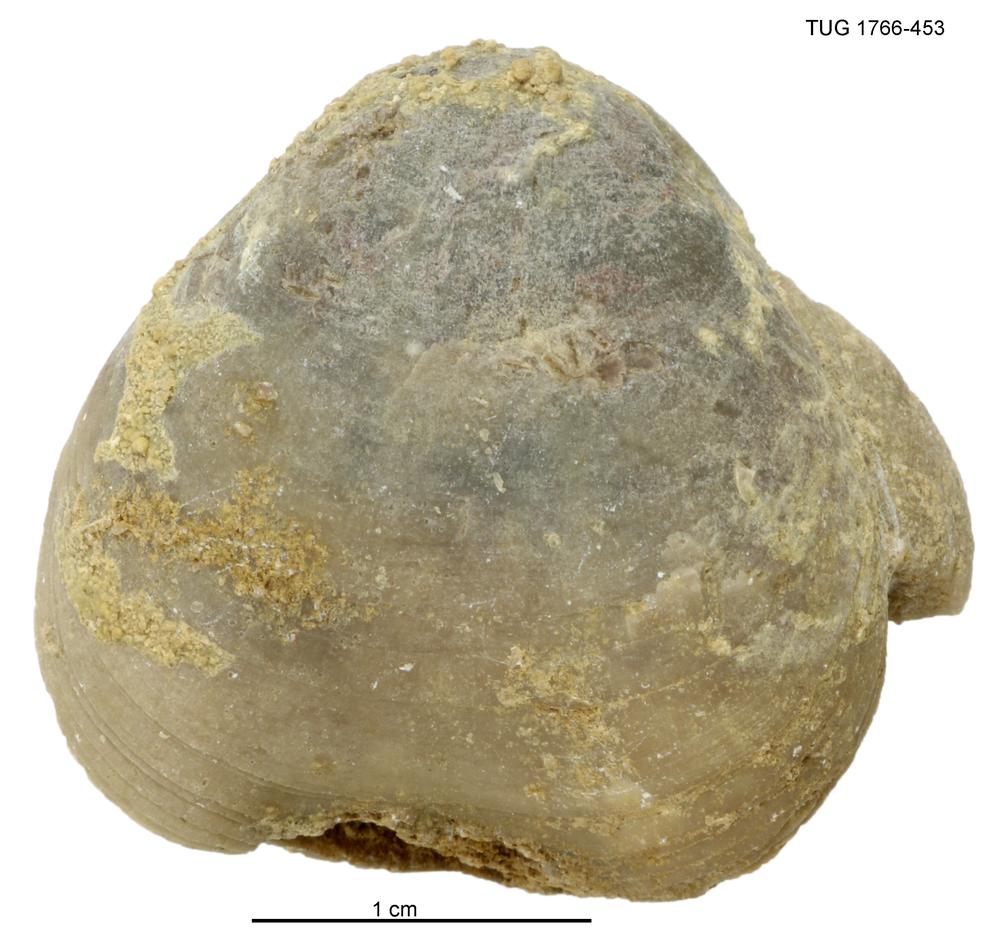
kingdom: Animalia
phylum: Brachiopoda
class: Rhynchonellata
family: Porambonitidae
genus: Porambonites
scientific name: Porambonites
